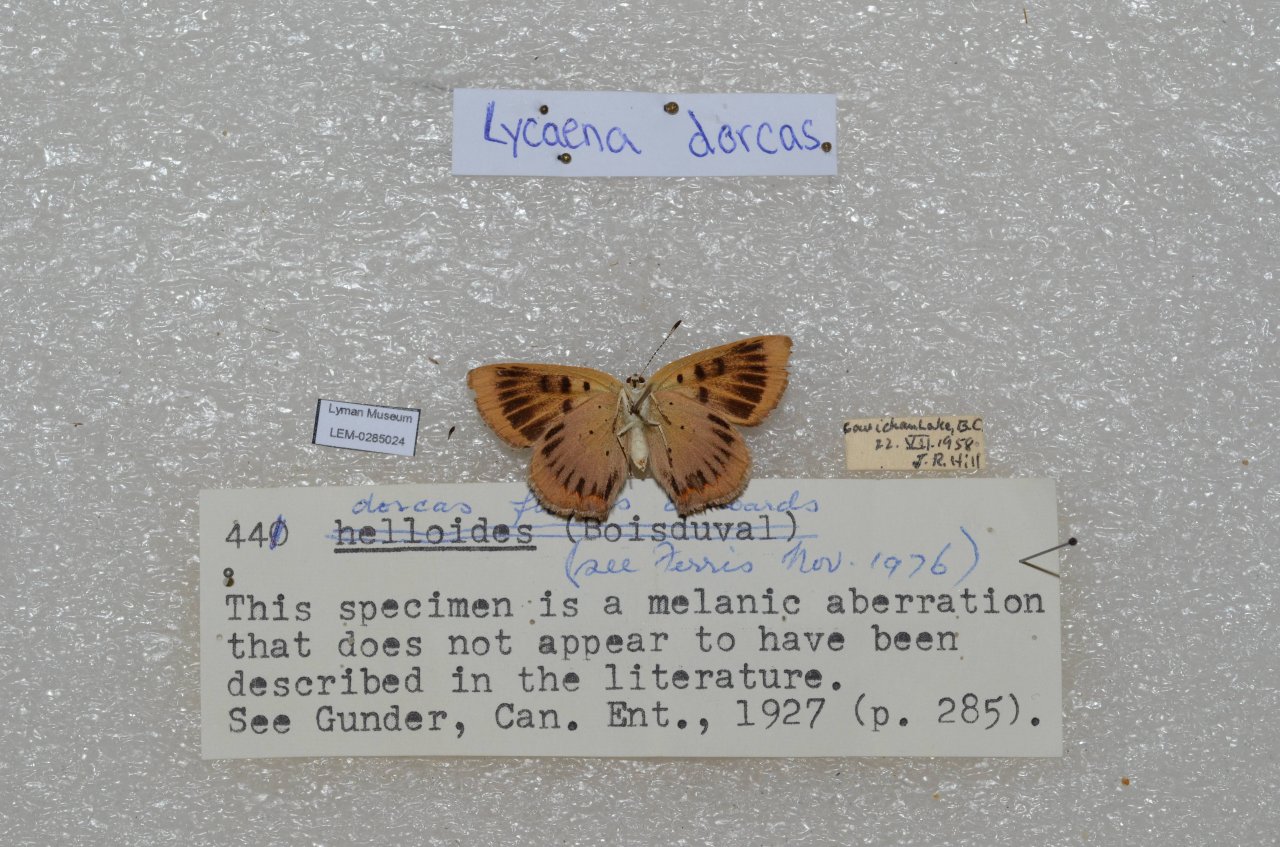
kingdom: Animalia
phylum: Arthropoda
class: Insecta
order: Lepidoptera
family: Lycaenidae
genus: Epidemia
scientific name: Epidemia dorcas
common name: Dorcas Copper
